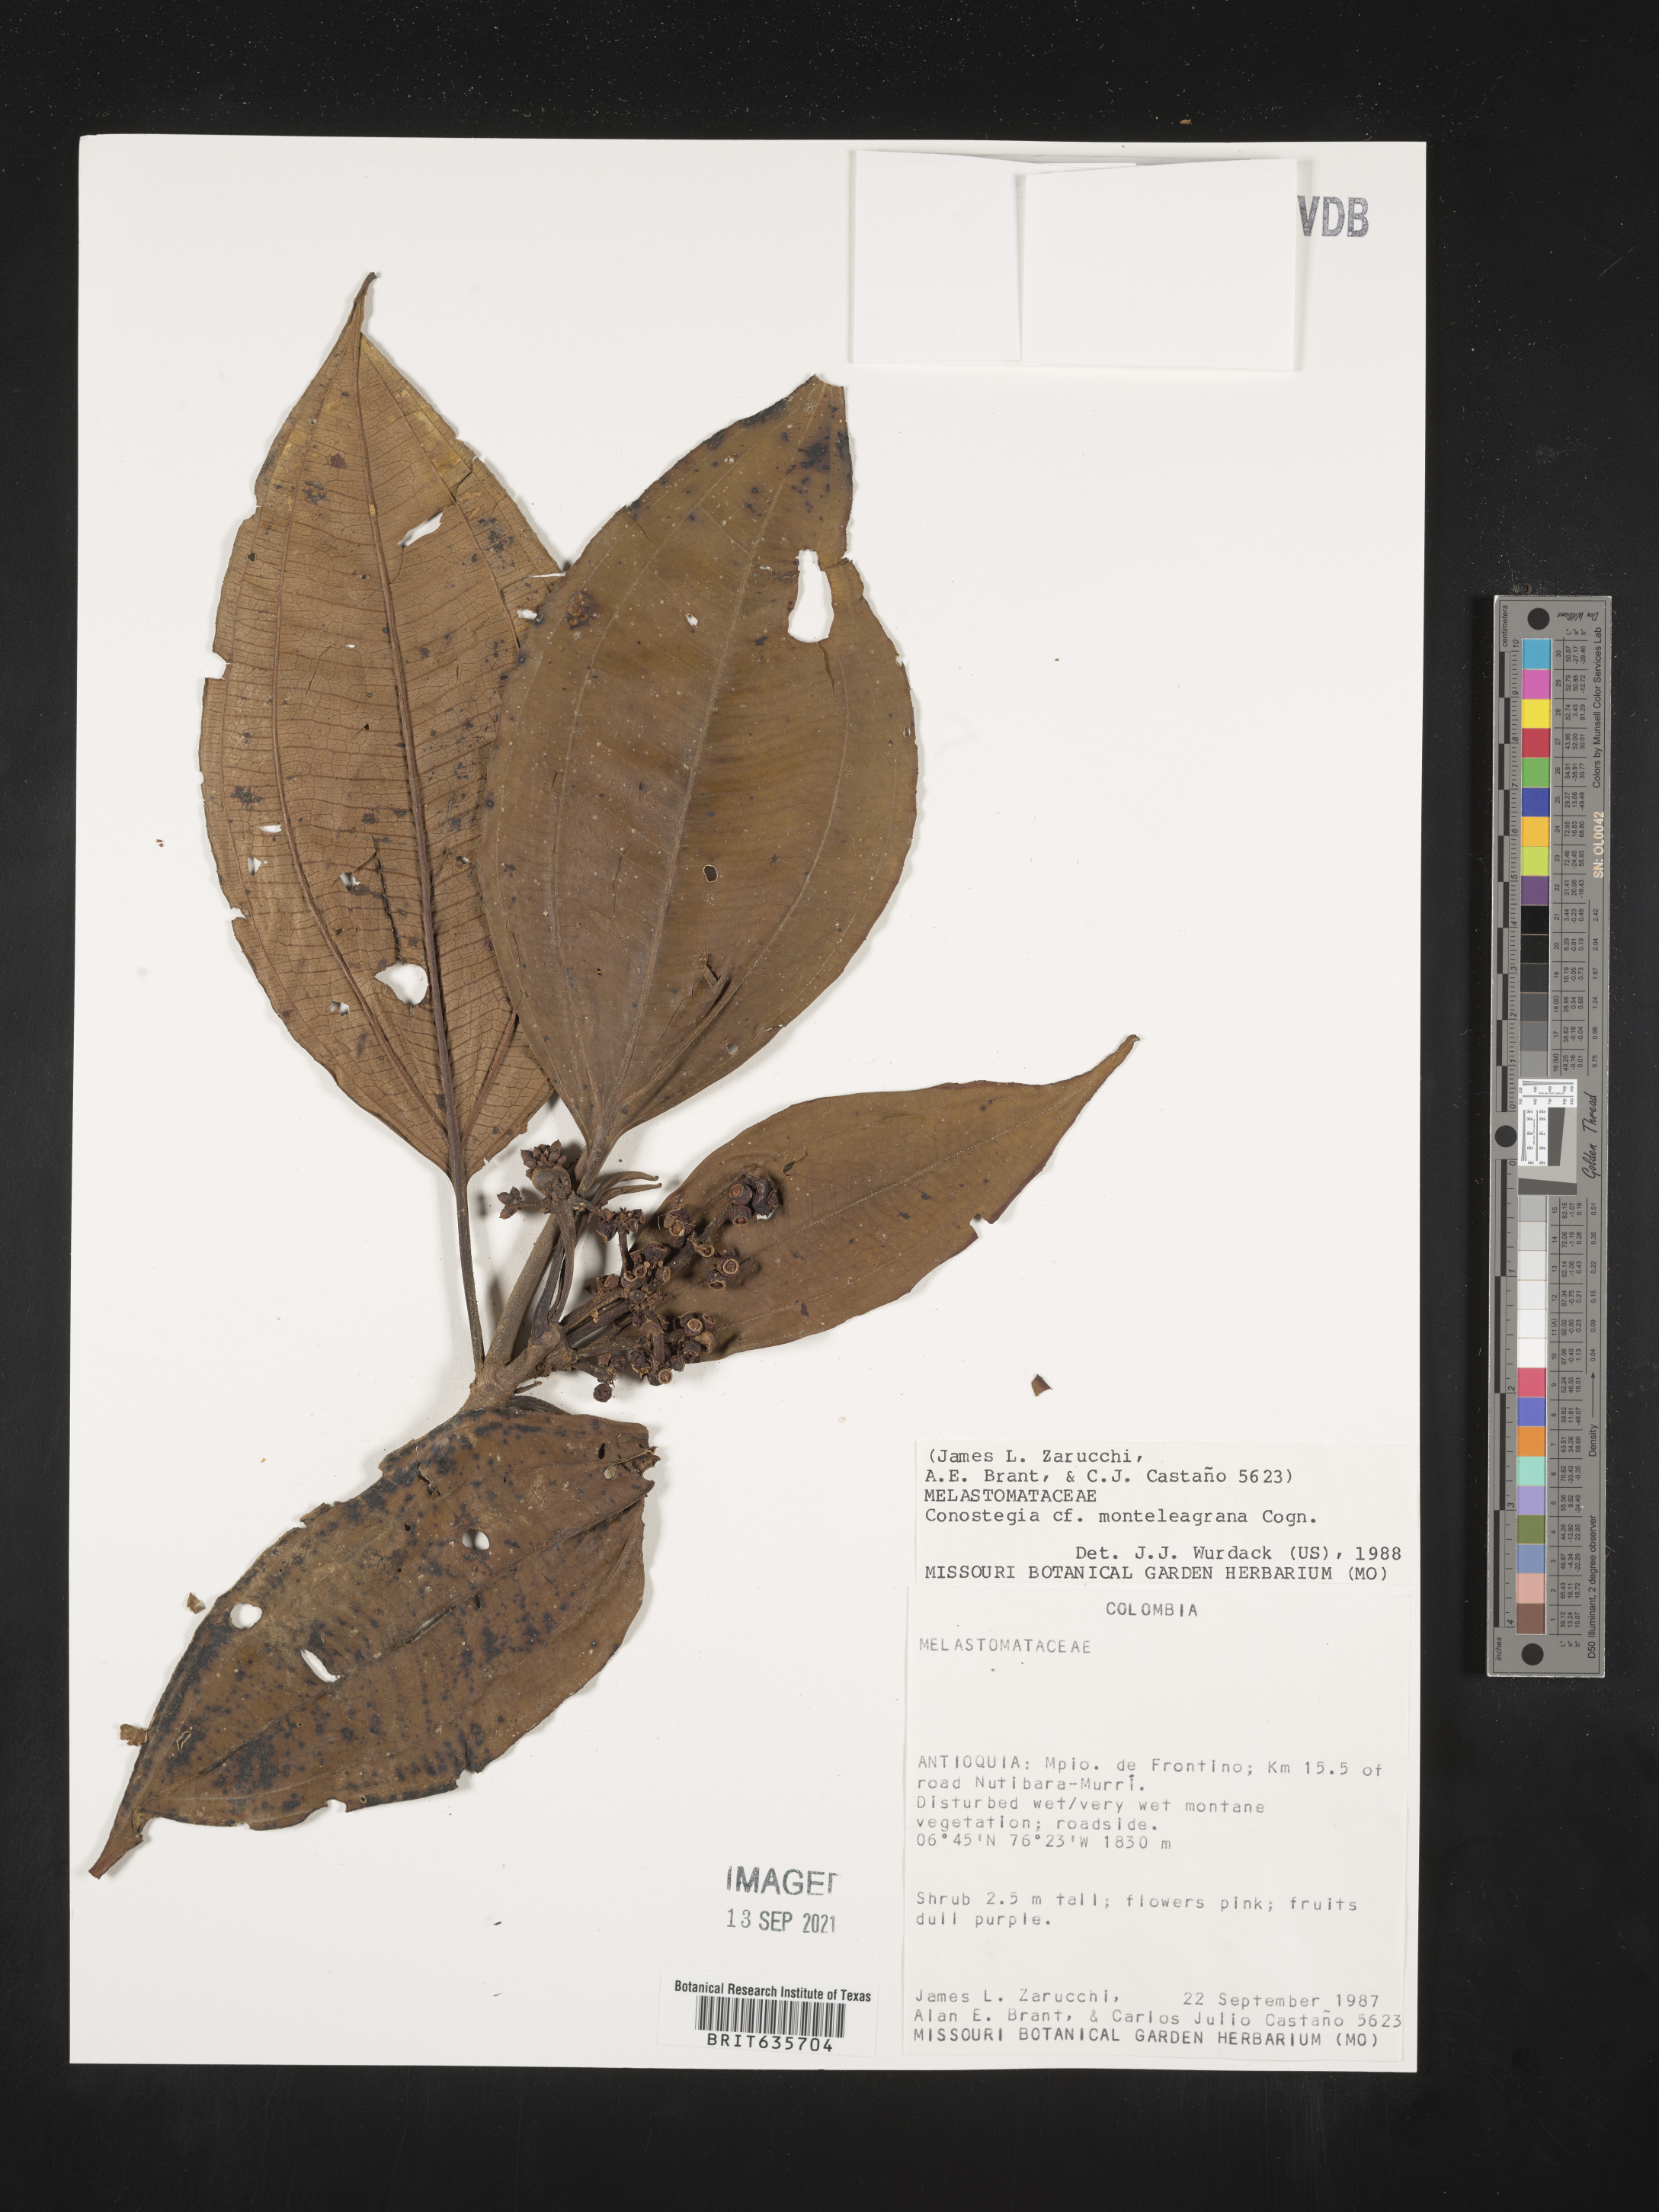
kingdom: Plantae
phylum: Tracheophyta
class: Magnoliopsida
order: Myrtales
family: Melastomataceae
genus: Miconia
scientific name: Miconia
